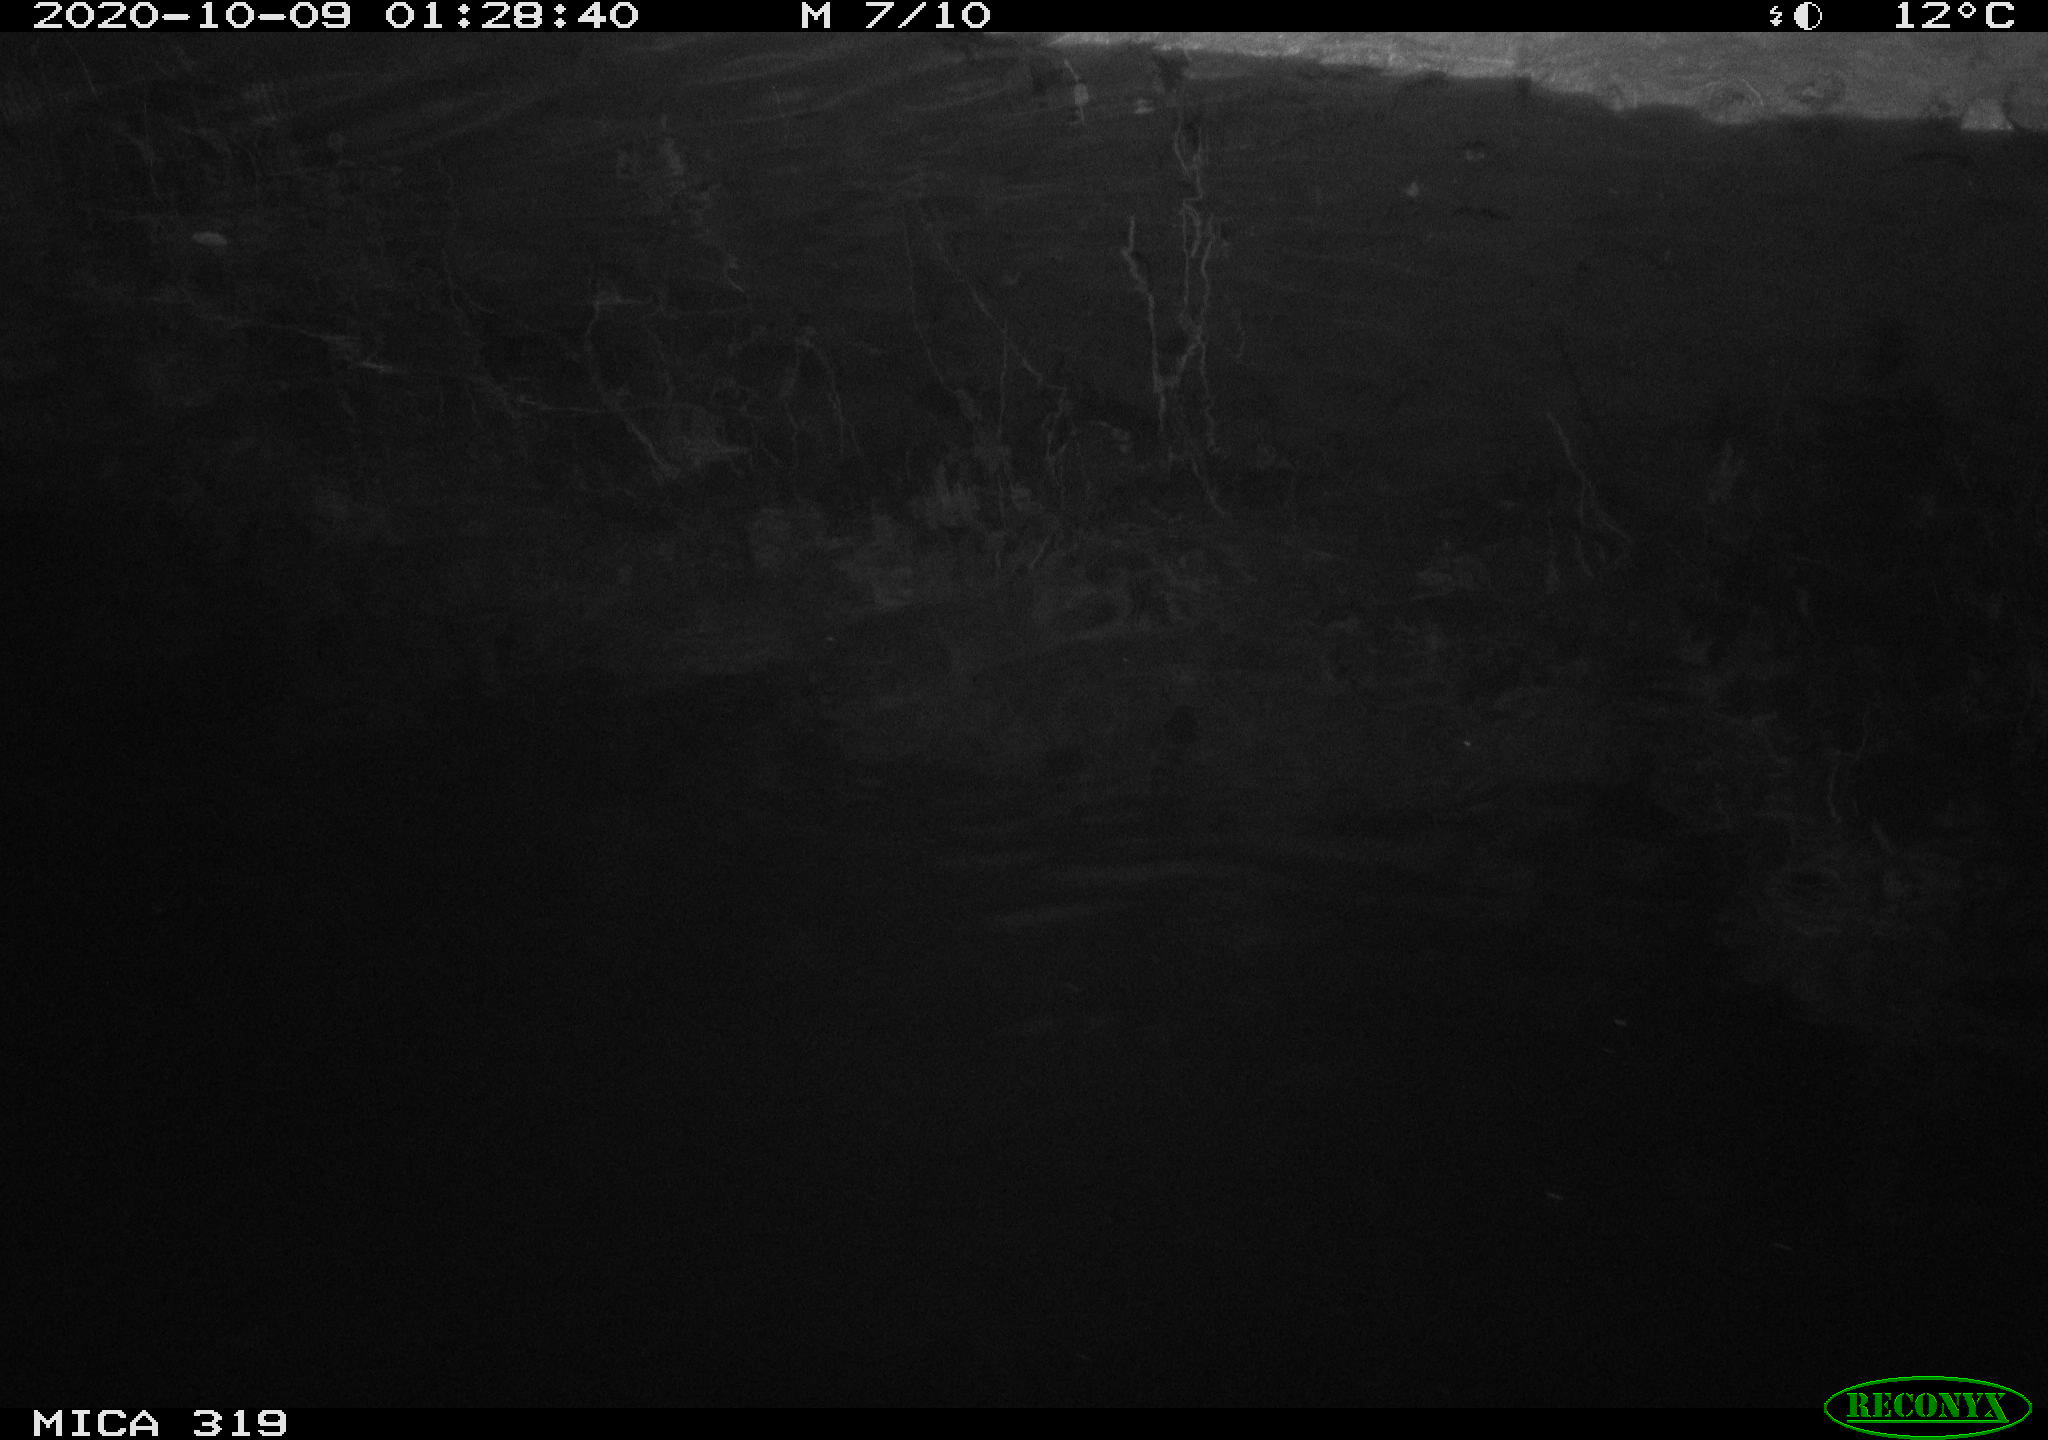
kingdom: Animalia
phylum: Chordata
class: Mammalia
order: Rodentia
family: Muridae
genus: Rattus
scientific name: Rattus norvegicus
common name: Brown rat
